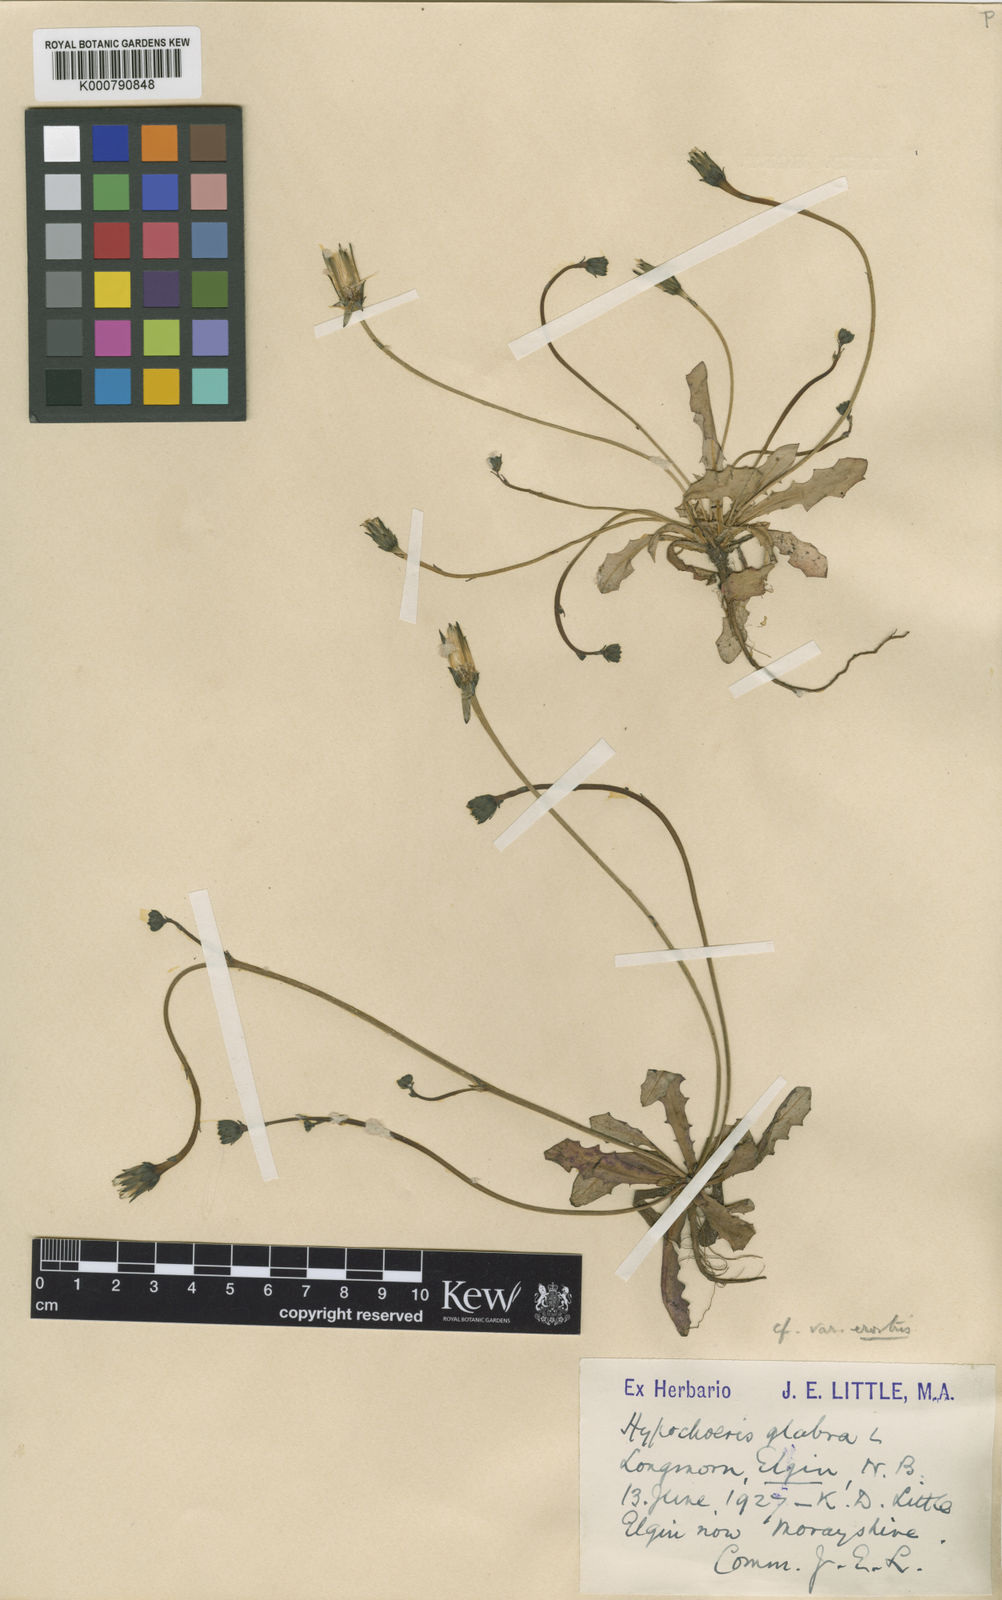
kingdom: Plantae
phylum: Tracheophyta
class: Magnoliopsida
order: Asterales
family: Asteraceae
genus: Hypochaeris
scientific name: Hypochaeris glabra
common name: Smooth catsear
